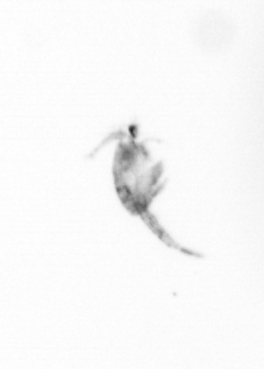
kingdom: Animalia
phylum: Arthropoda
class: Copepoda
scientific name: Copepoda
